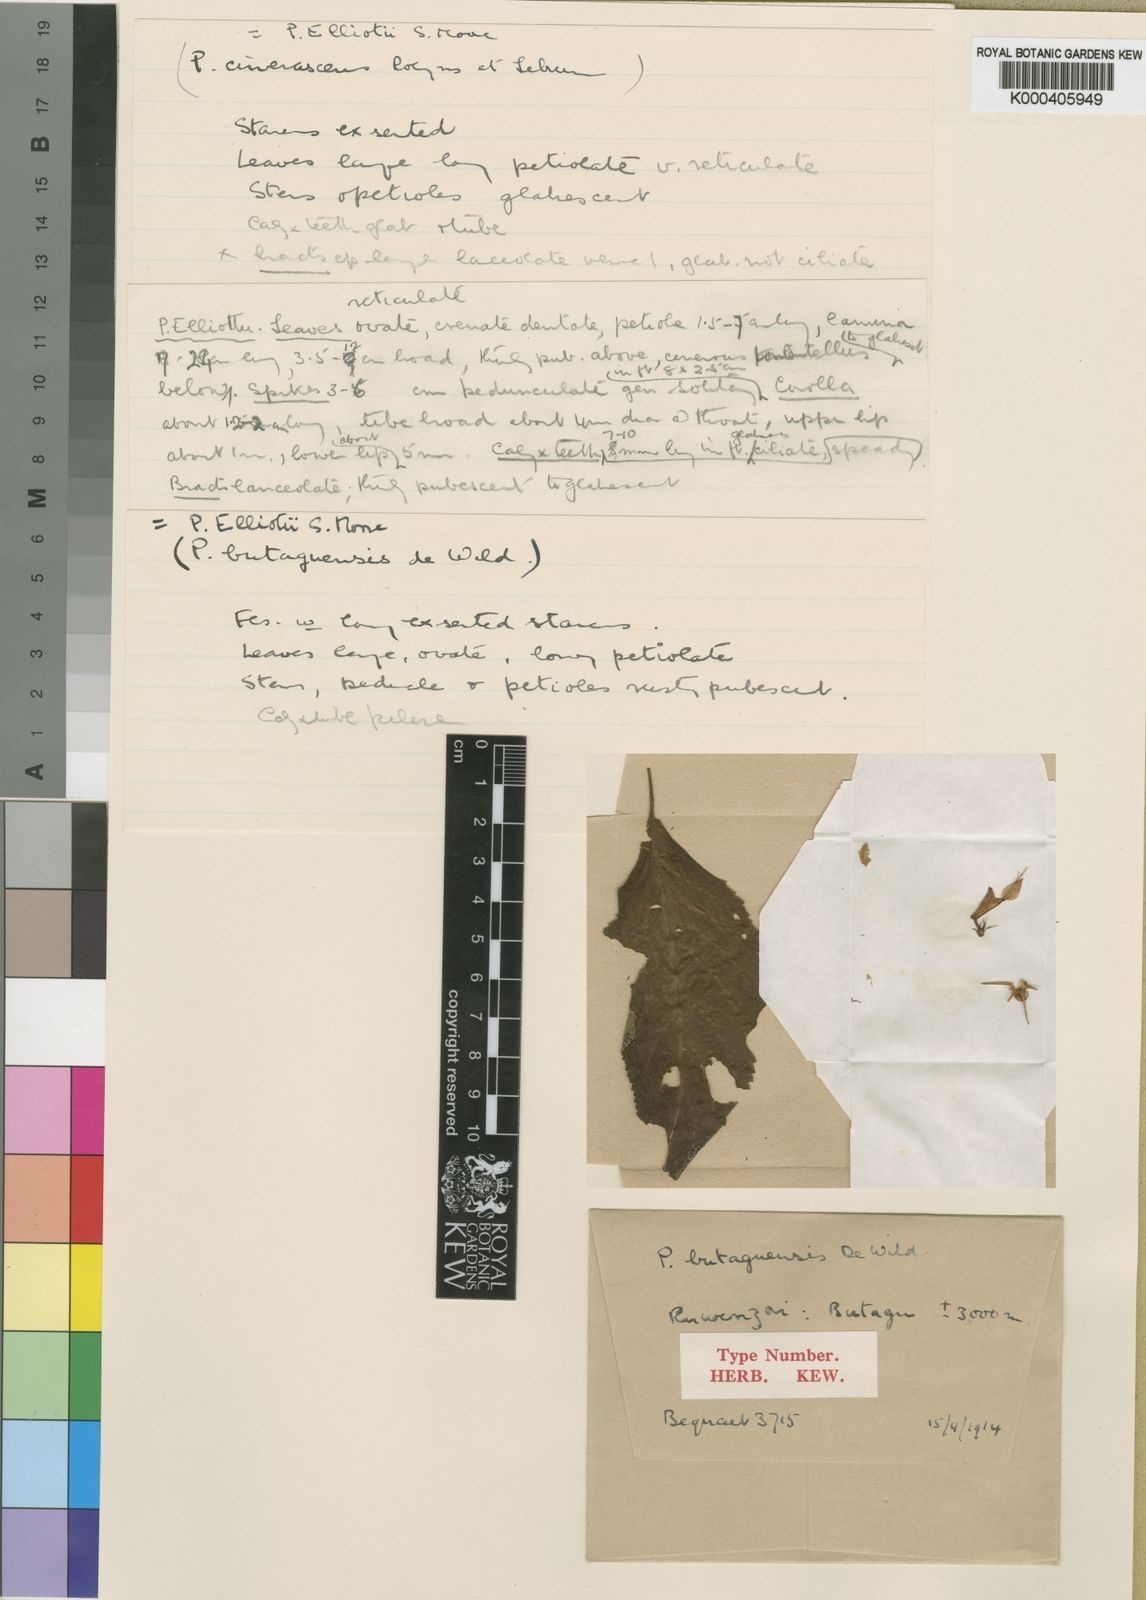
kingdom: Plantae
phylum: Tracheophyta
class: Magnoliopsida
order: Lamiales
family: Lamiaceae
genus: Coleus
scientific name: Coleus elliotii
